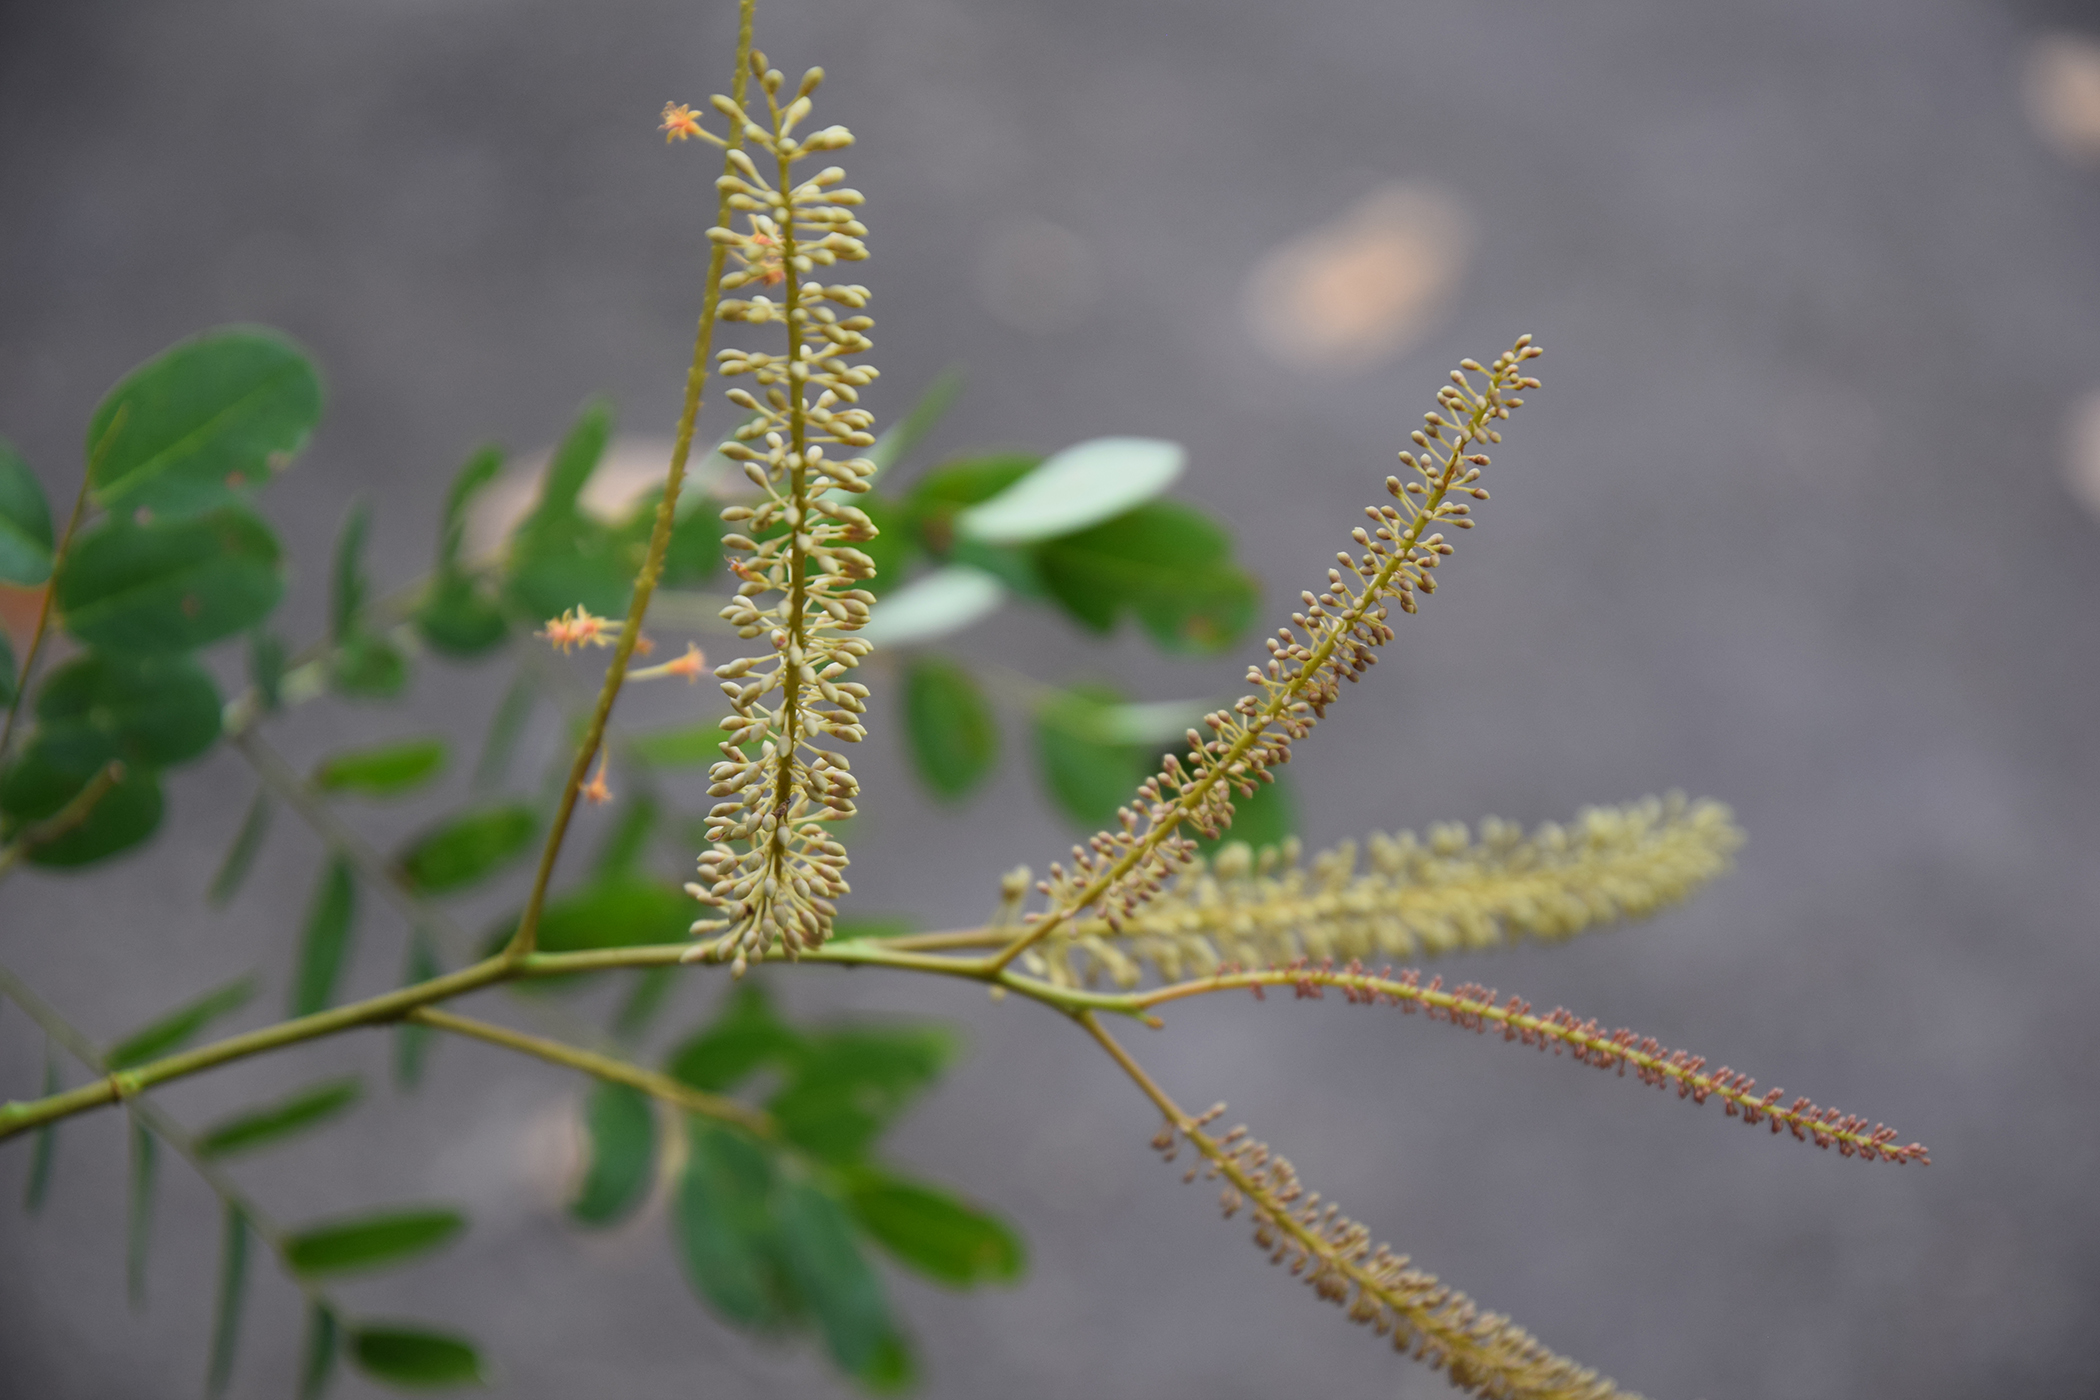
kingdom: Plantae
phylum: Tracheophyta
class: Magnoliopsida
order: Fabales
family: Fabaceae
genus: Adenanthera
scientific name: Adenanthera microsperma
